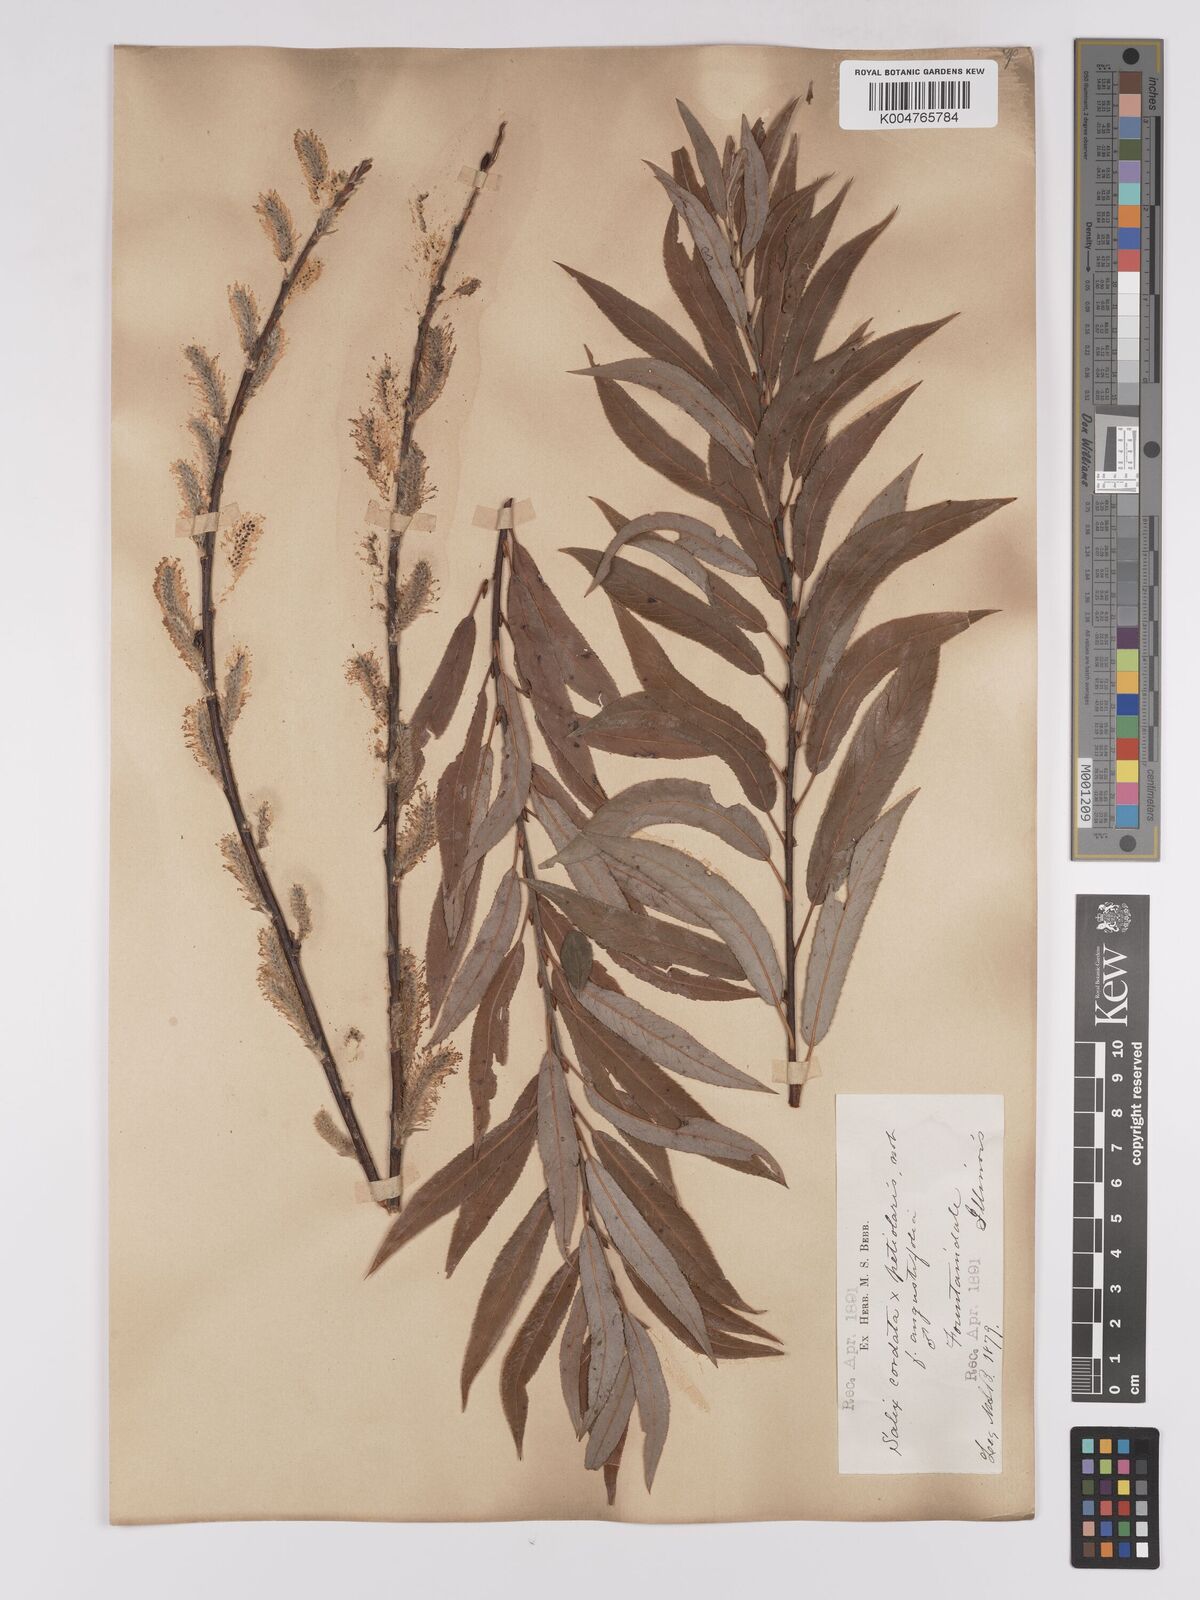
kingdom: Plantae
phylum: Tracheophyta
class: Magnoliopsida
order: Malpighiales
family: Salicaceae
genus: Salix
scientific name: Salix cordata
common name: Heart-leaf willow
